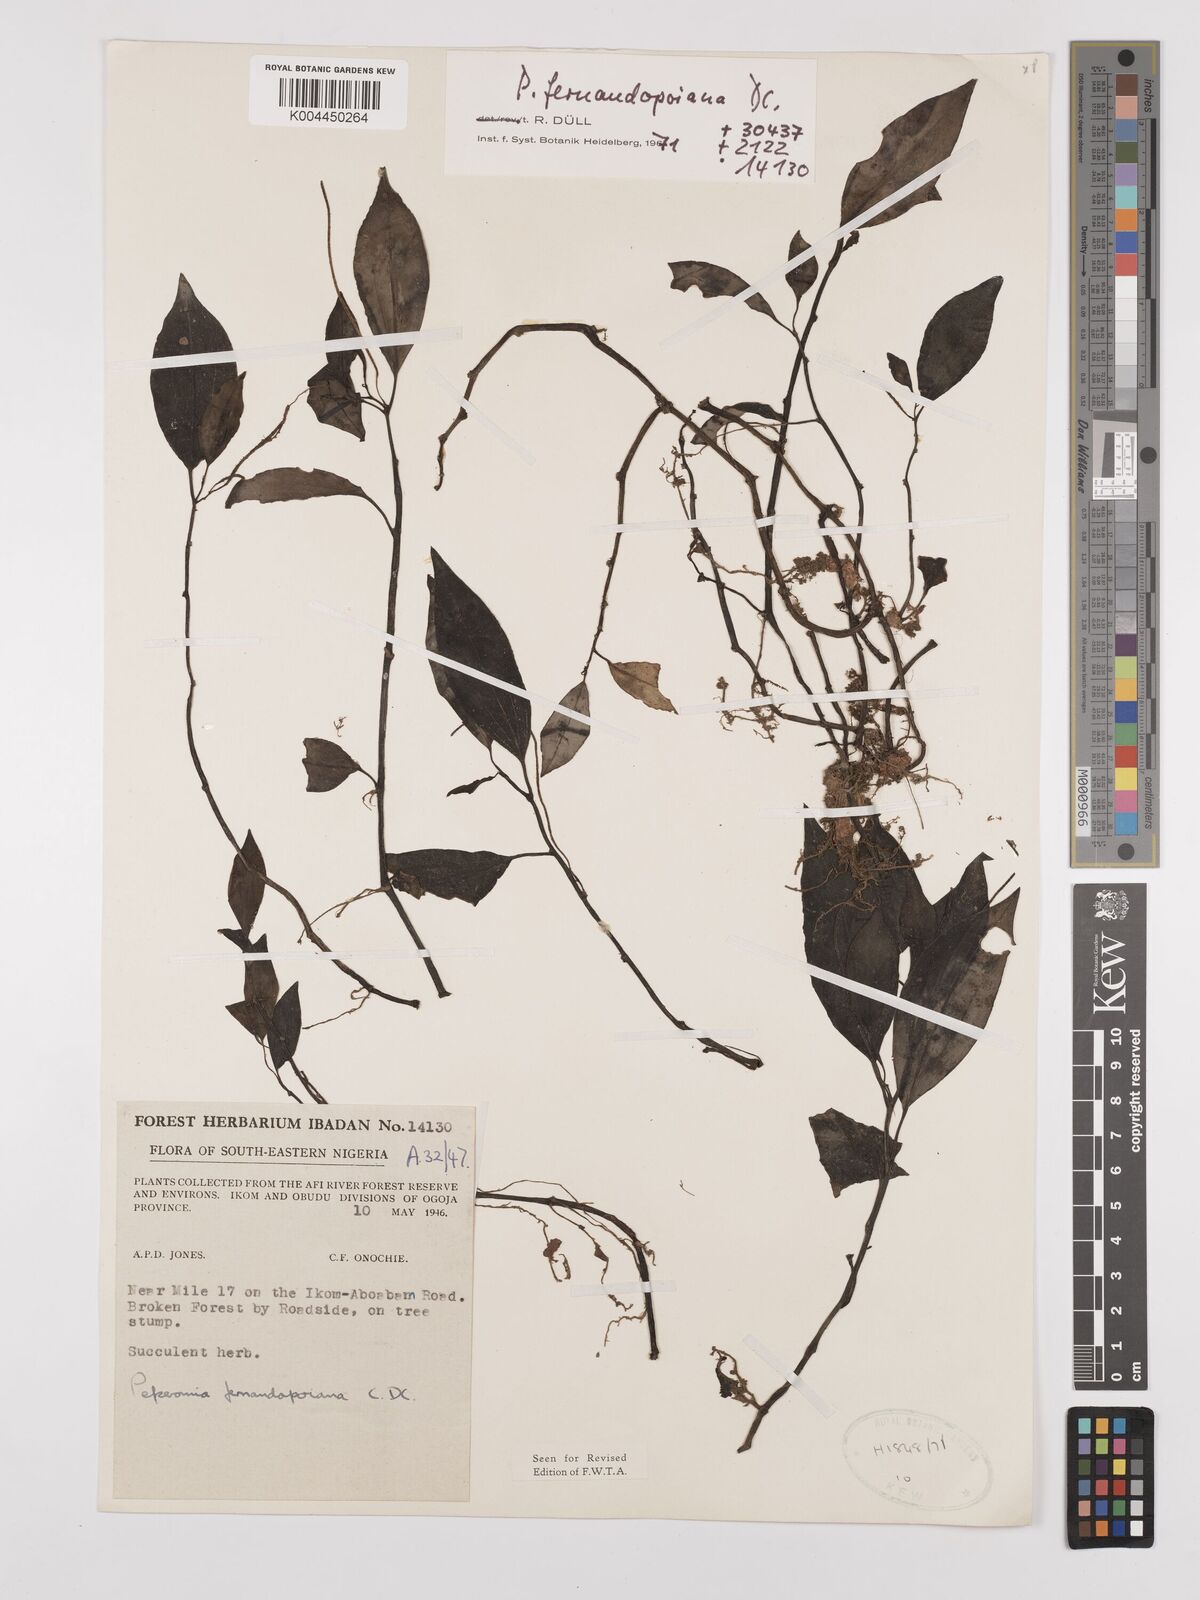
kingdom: Plantae
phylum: Tracheophyta
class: Magnoliopsida
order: Piperales
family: Piperaceae
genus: Peperomia
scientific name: Peperomia fernandeziana
